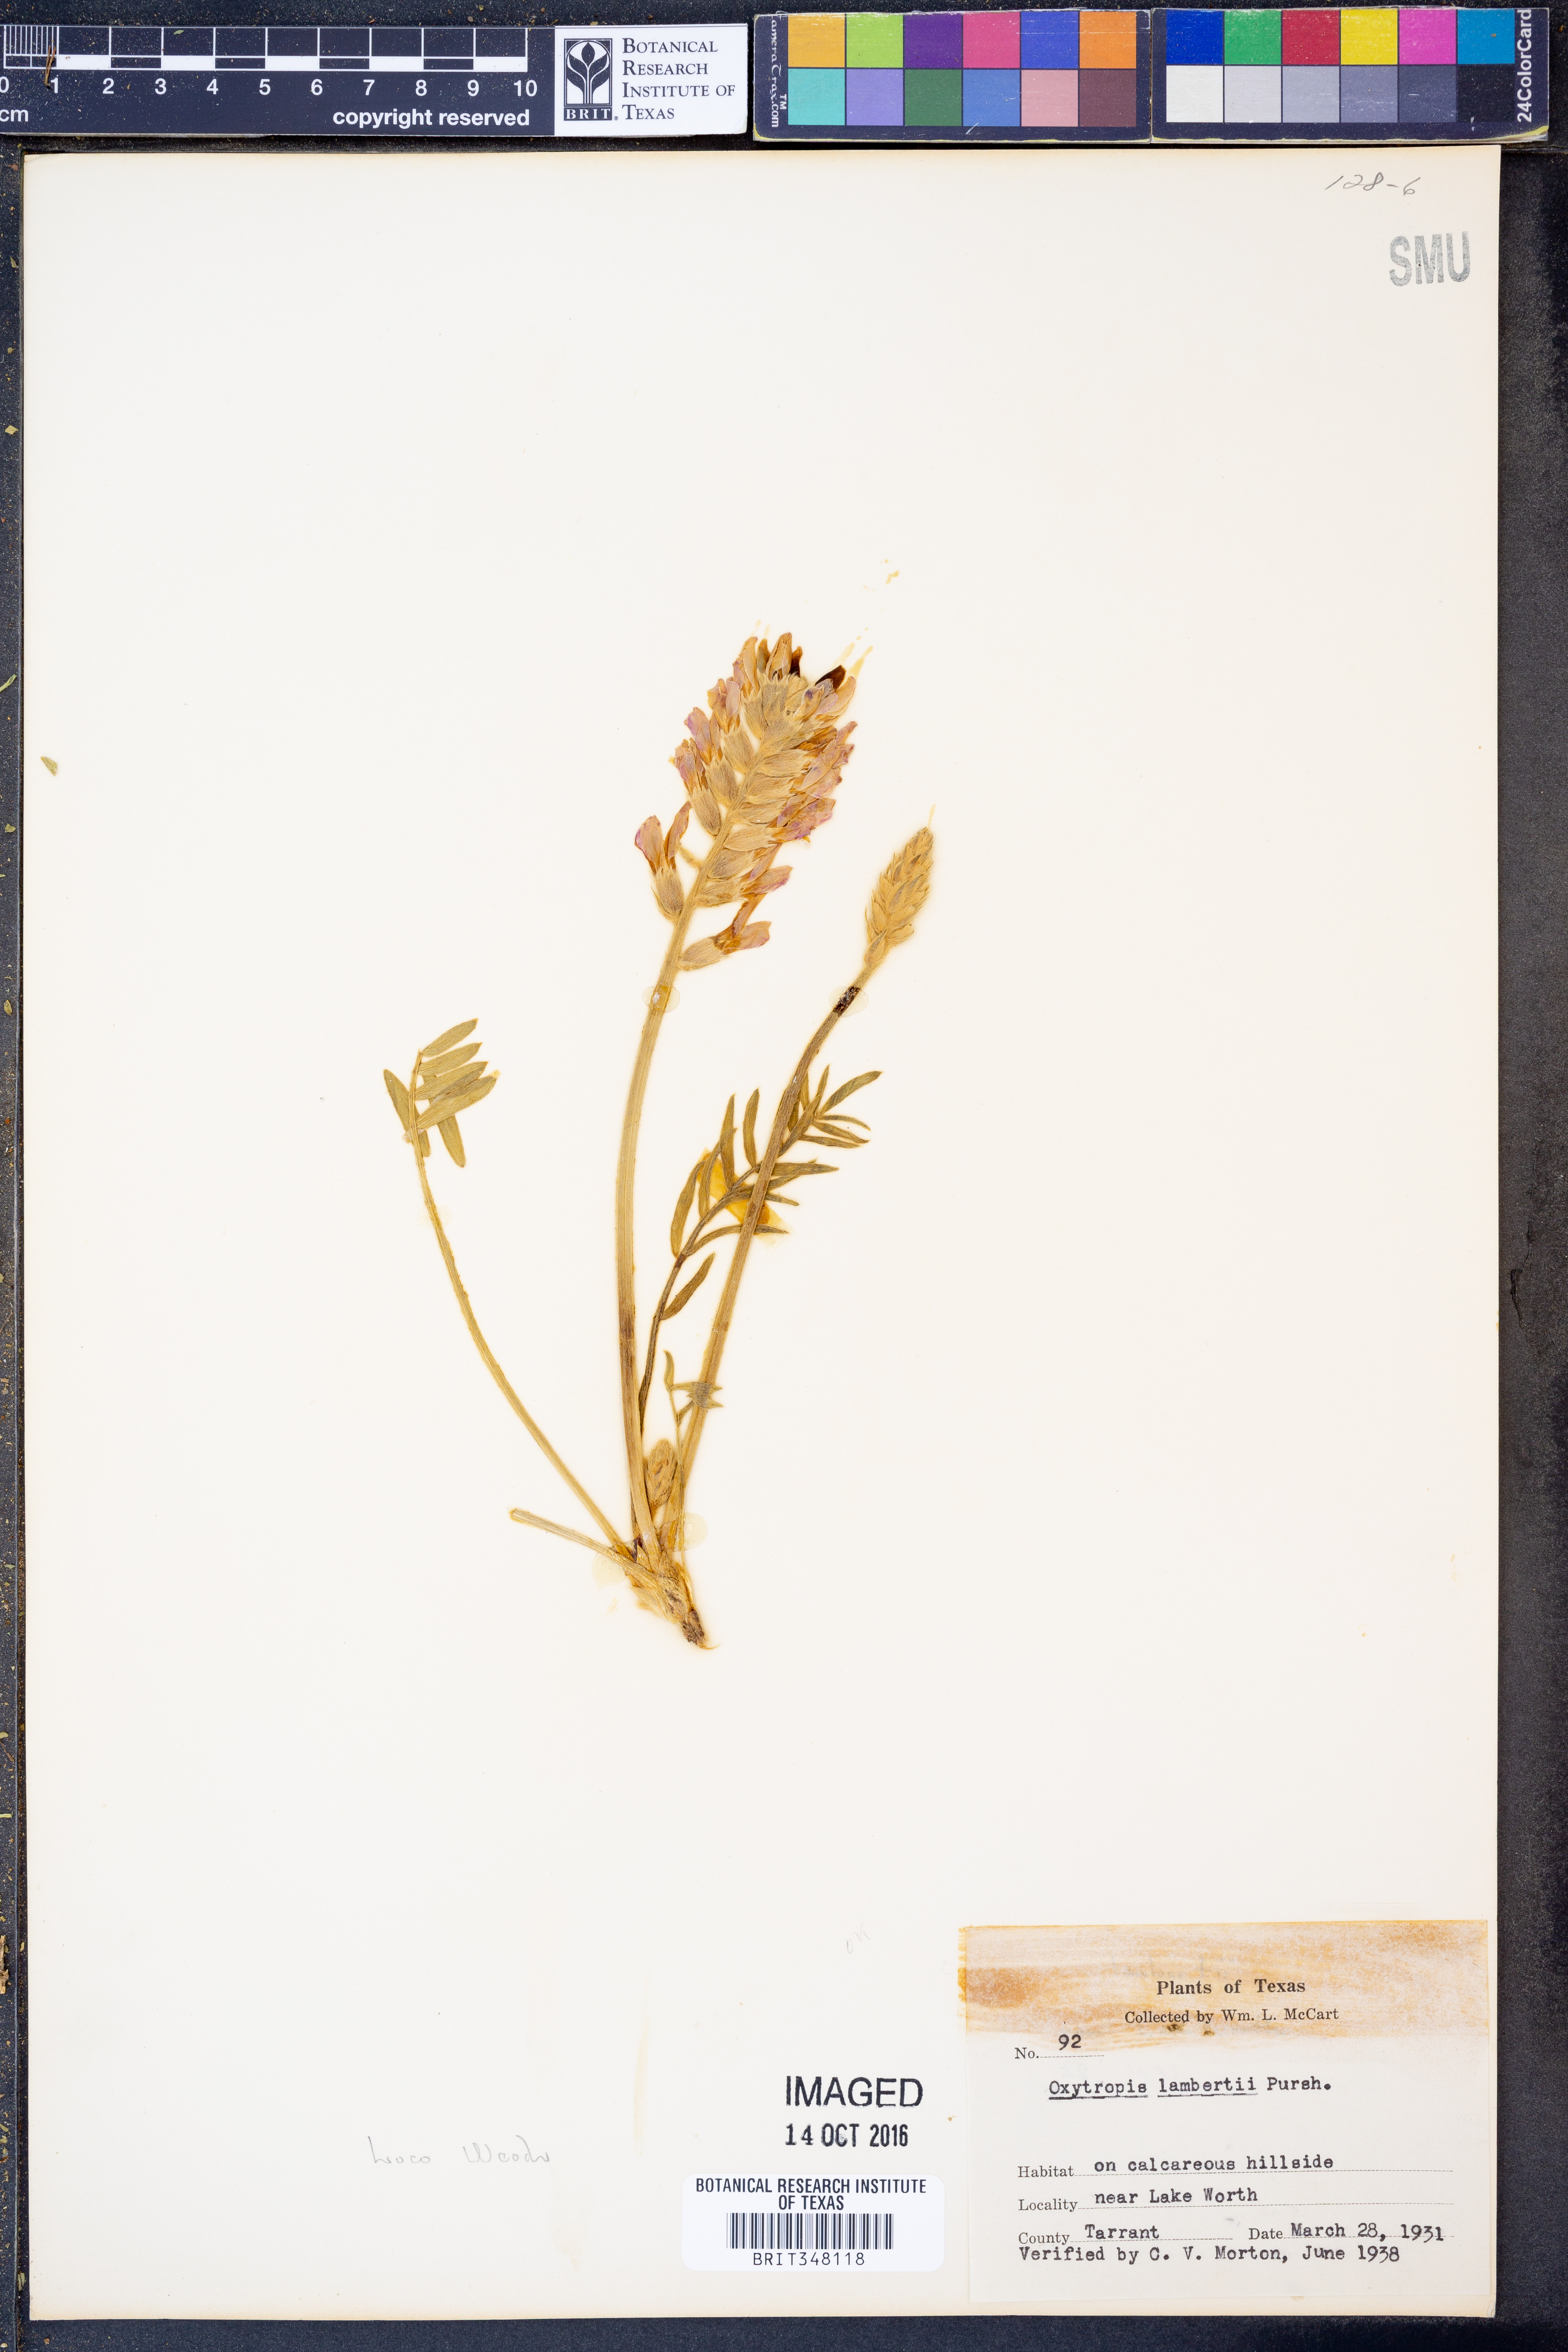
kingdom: Plantae
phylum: Tracheophyta
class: Magnoliopsida
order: Fabales
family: Fabaceae
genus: Oxytropis
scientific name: Oxytropis lambertii
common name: Purple locoweed
